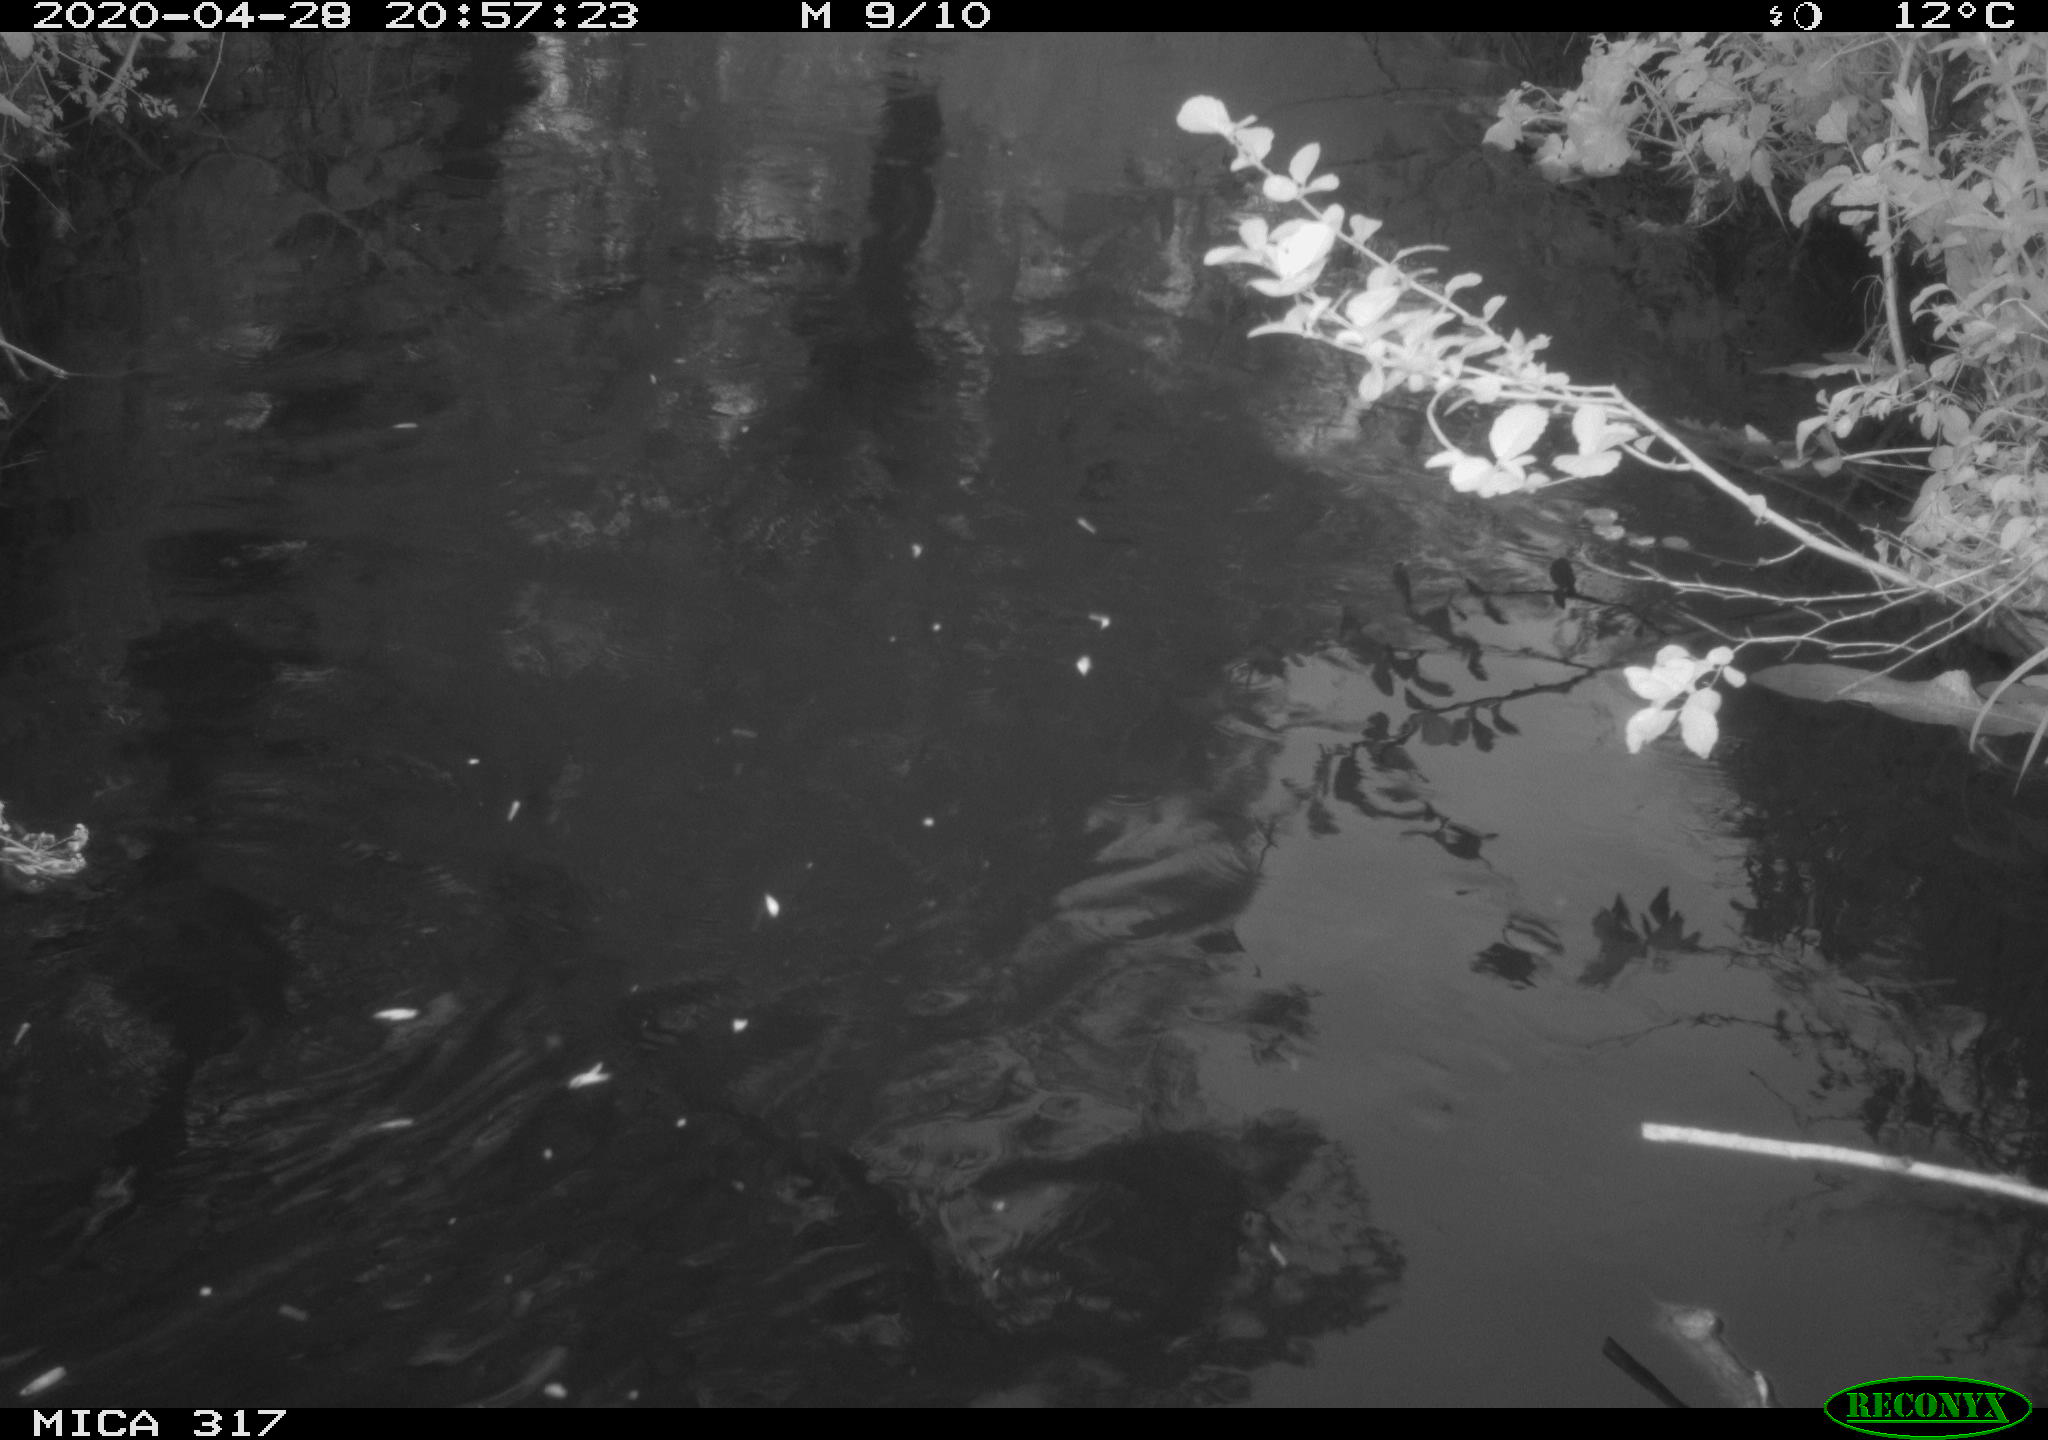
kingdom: Animalia
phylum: Chordata
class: Aves
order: Anseriformes
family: Anatidae
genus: Anas
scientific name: Anas platyrhynchos
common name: Mallard
